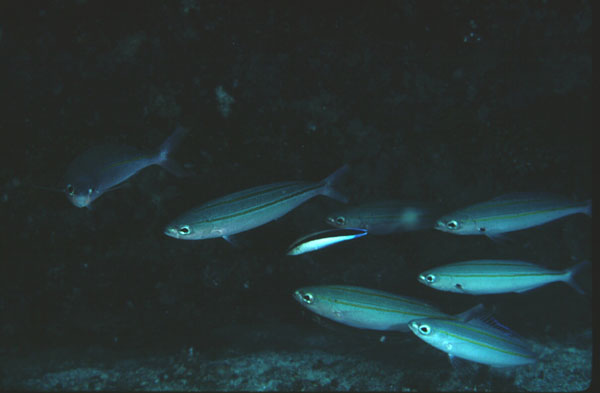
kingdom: Animalia
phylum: Chordata
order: Perciformes
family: Caesionidae
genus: Pterocaesio
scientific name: Pterocaesio digramma
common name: Double-lined fusilier
